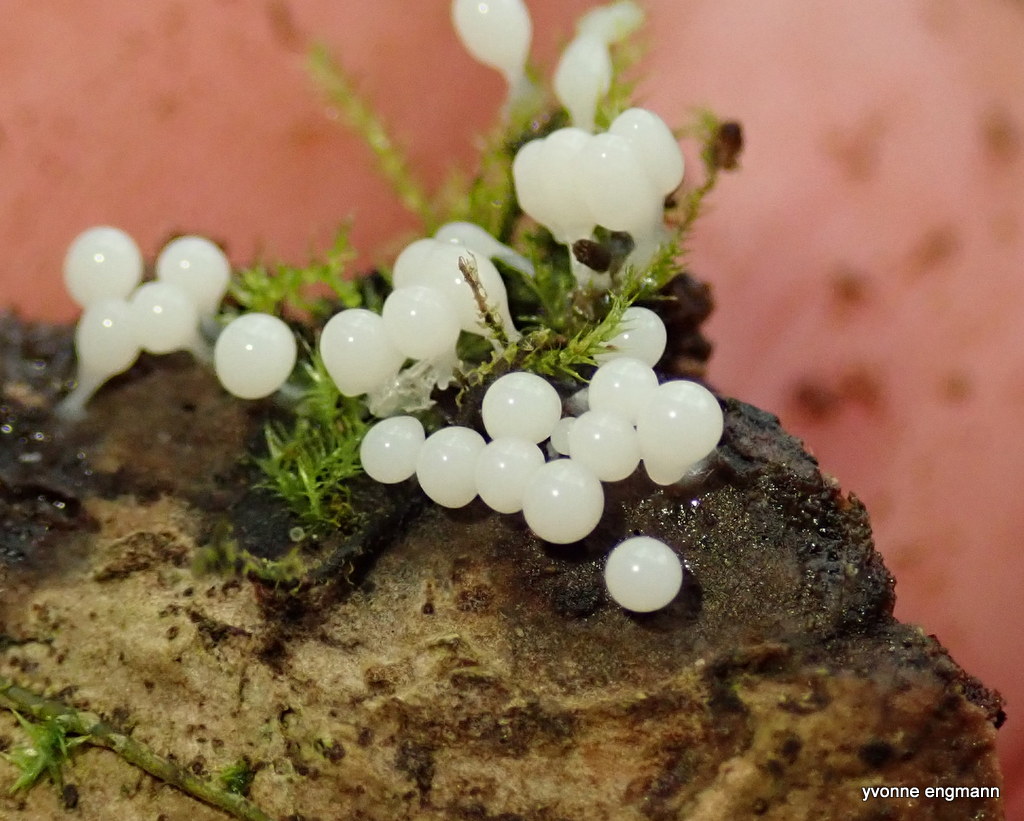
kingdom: Protozoa
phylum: Mycetozoa
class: Myxomycetes
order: Trichiales
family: Trichiaceae
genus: Trichia
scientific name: Trichia
